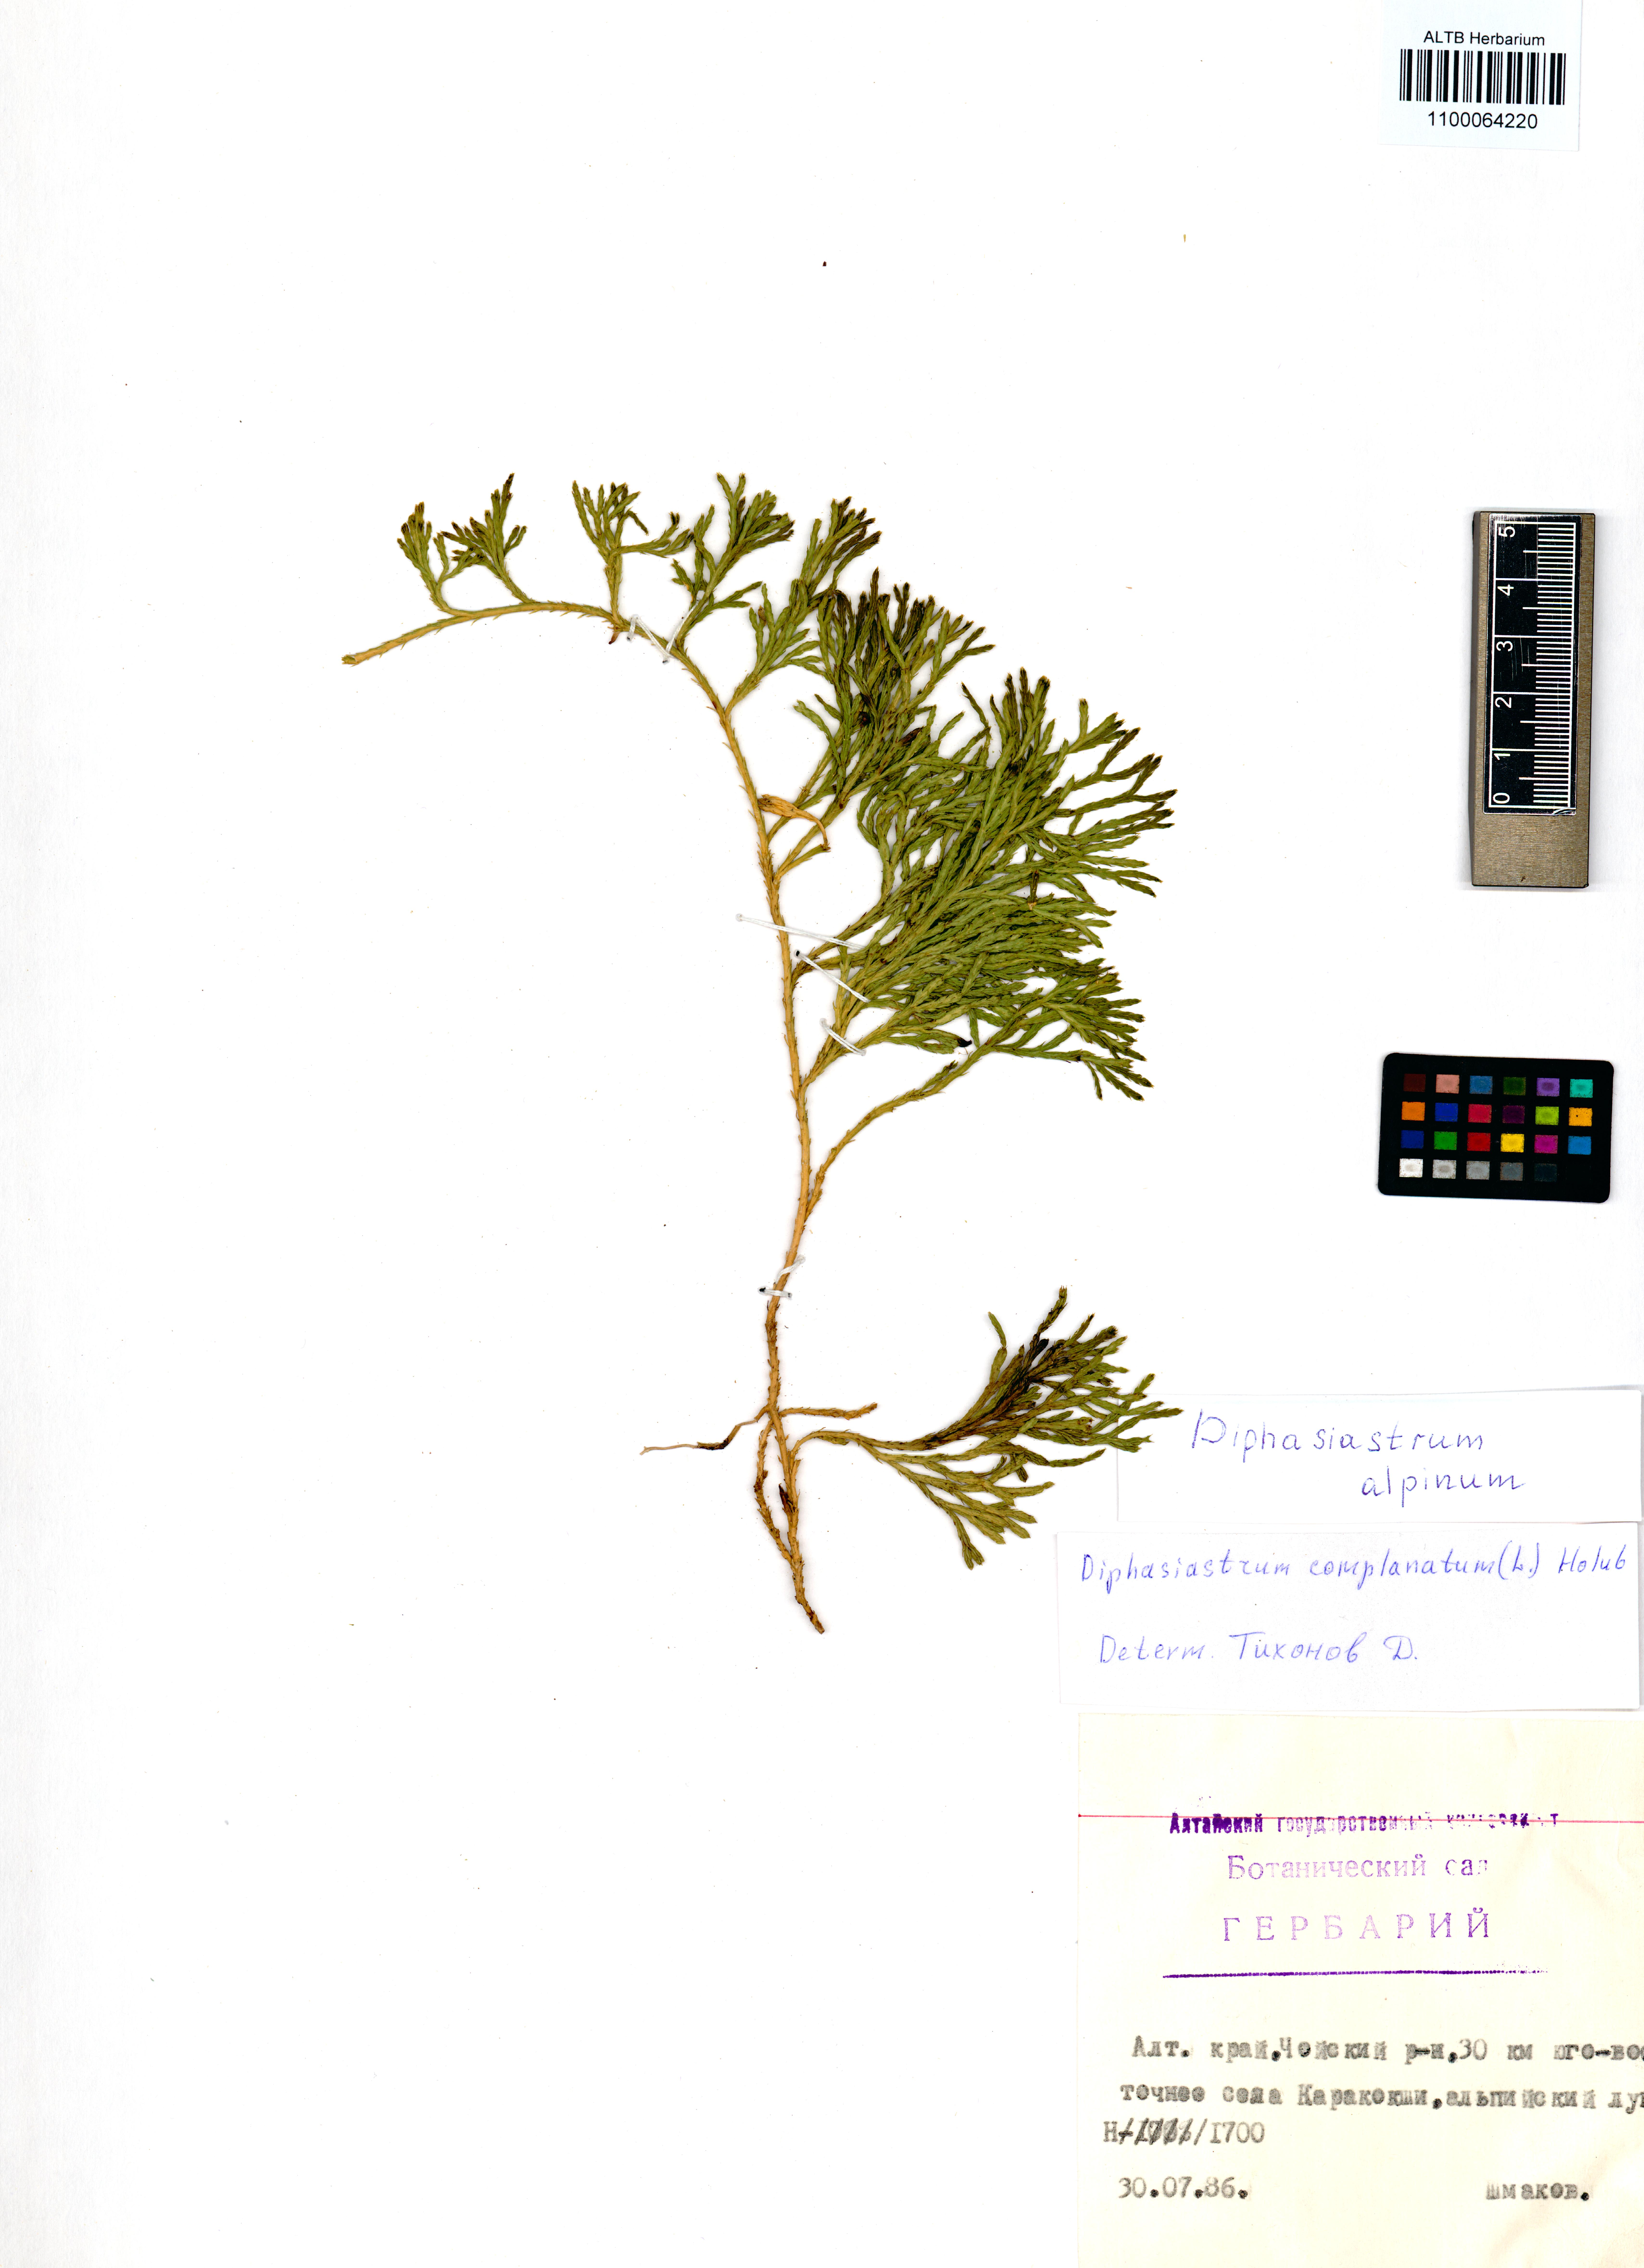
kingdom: Plantae
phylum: Tracheophyta
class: Lycopodiopsida
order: Lycopodiales
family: Lycopodiaceae
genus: Diphasiastrum
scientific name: Diphasiastrum alpinum
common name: Alpine clubmoss
